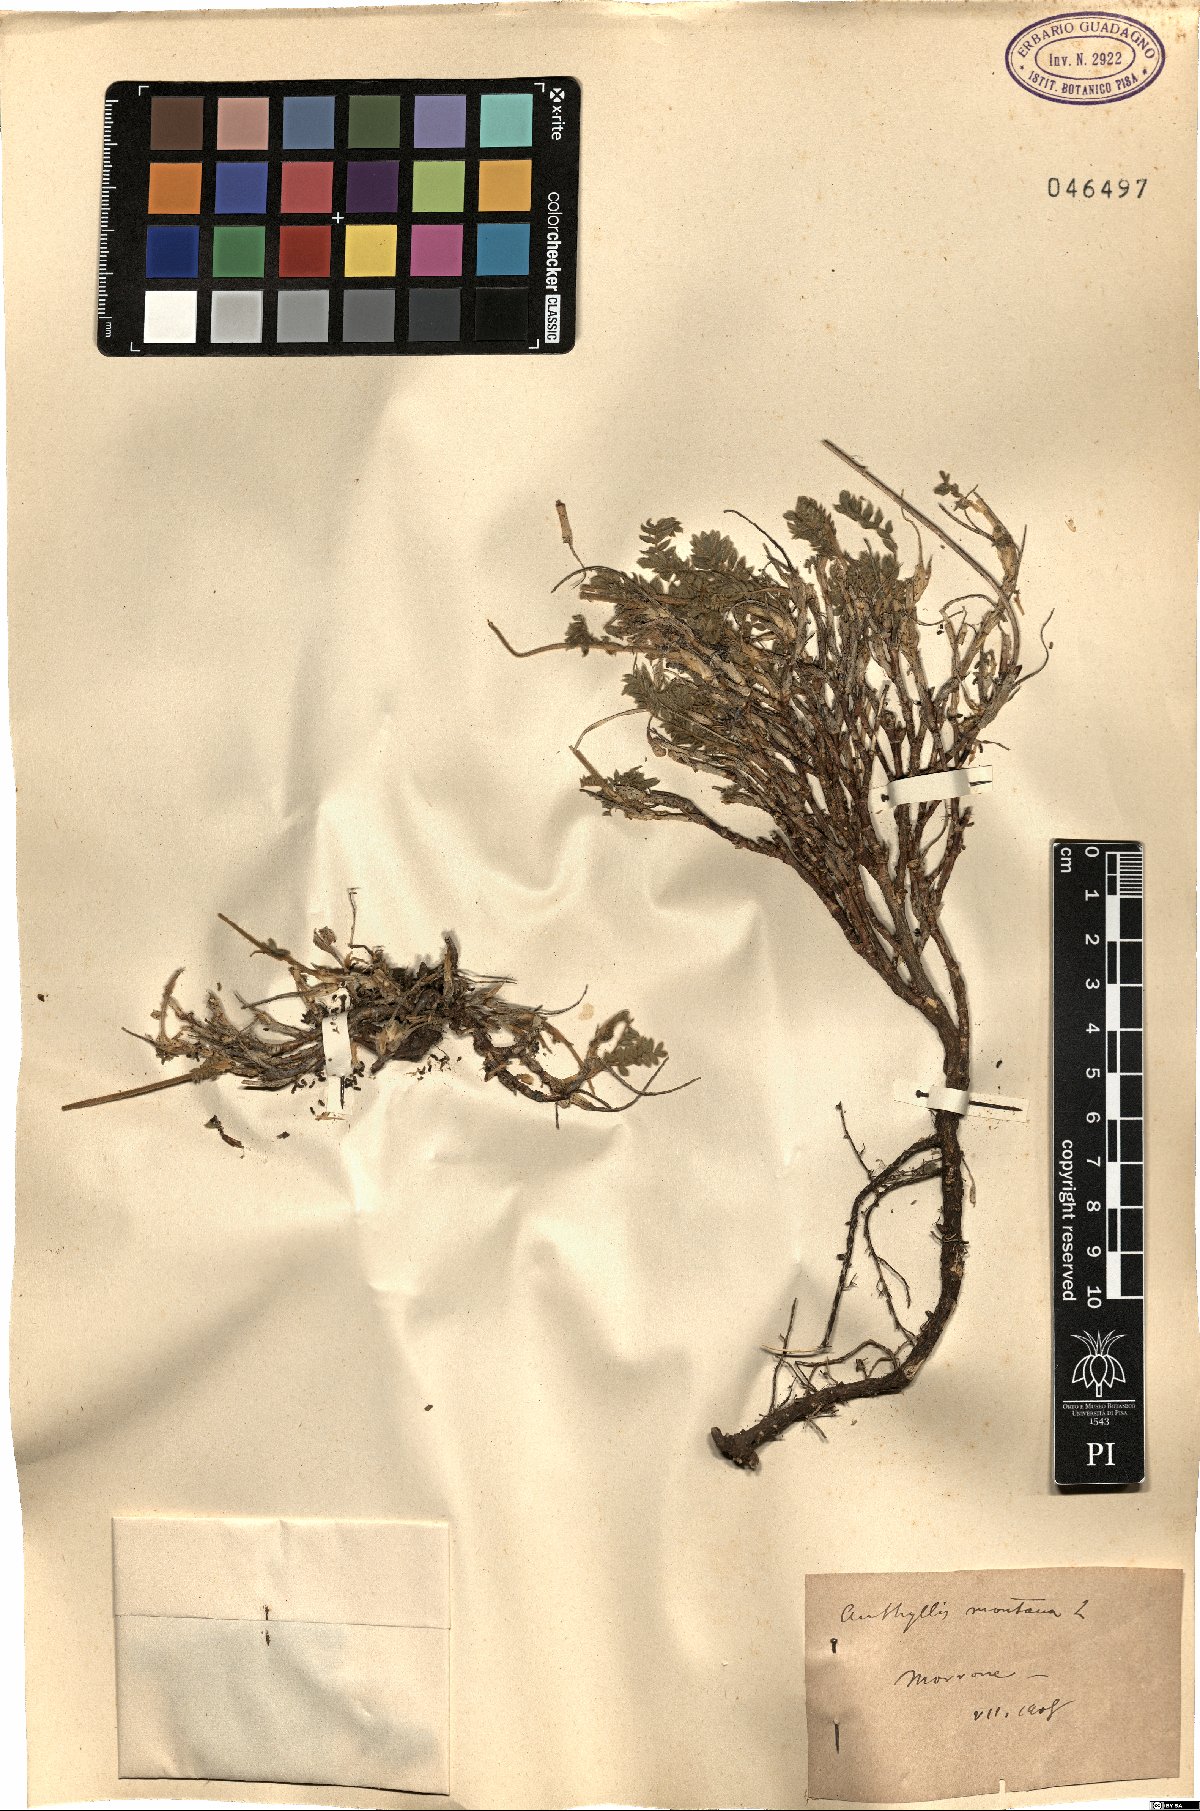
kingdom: Plantae
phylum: Tracheophyta
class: Magnoliopsida
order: Fabales
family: Fabaceae
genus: Anthyllis
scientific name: Anthyllis montana
